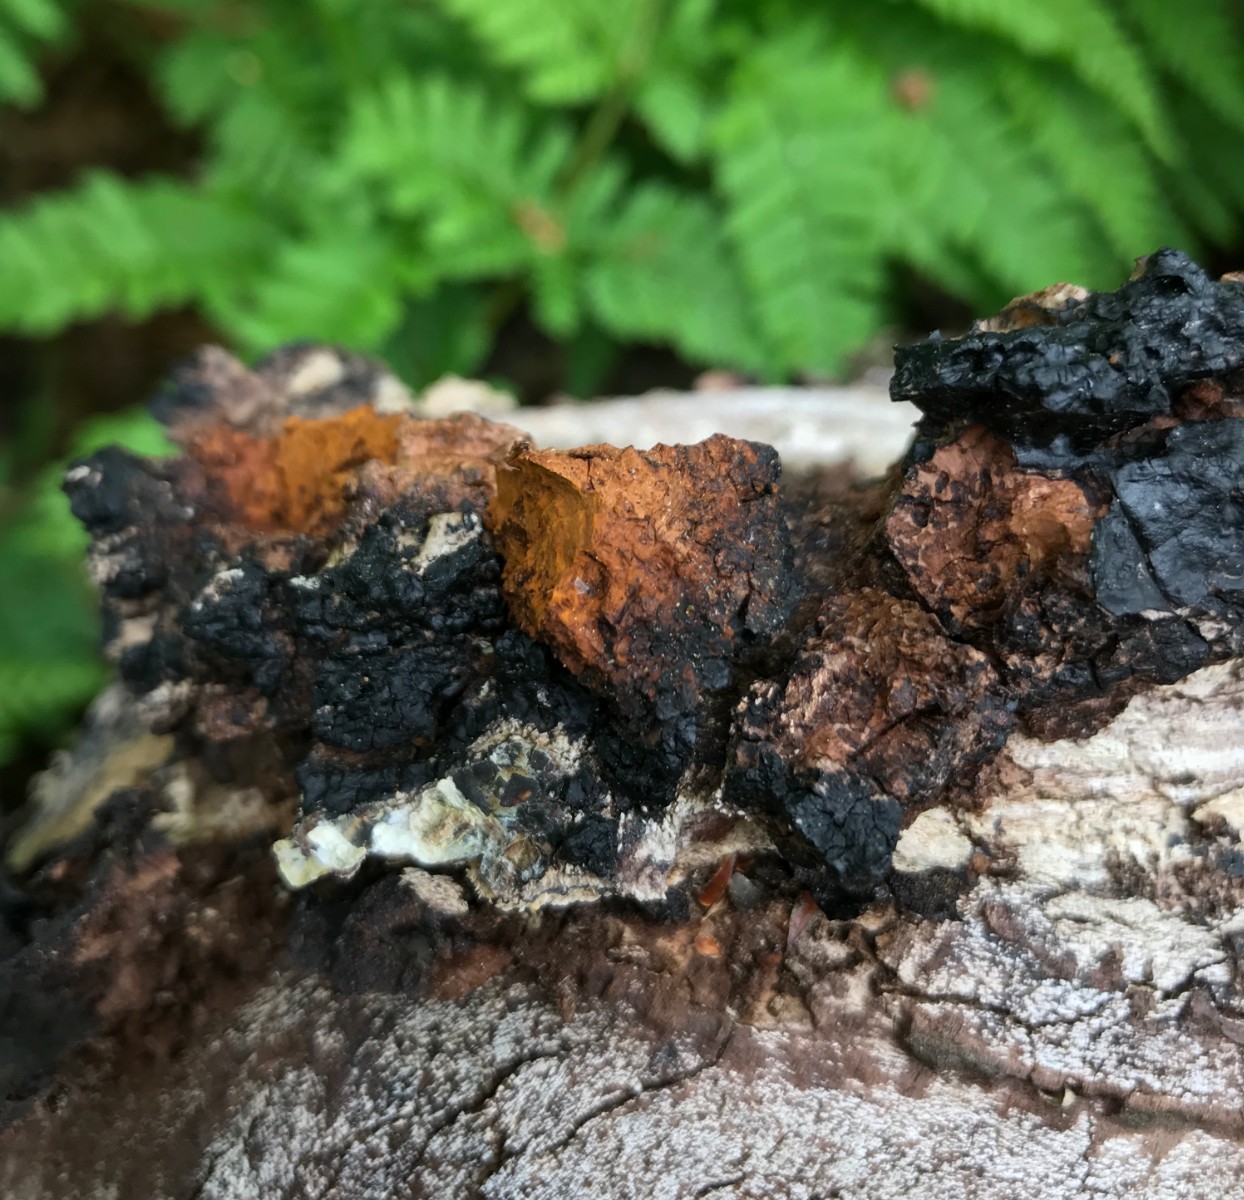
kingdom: Fungi
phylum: Basidiomycota
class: Agaricomycetes
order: Hymenochaetales
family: Hymenochaetaceae
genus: Inonotus
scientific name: Inonotus obliquus
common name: birke-spejlporesvamp
